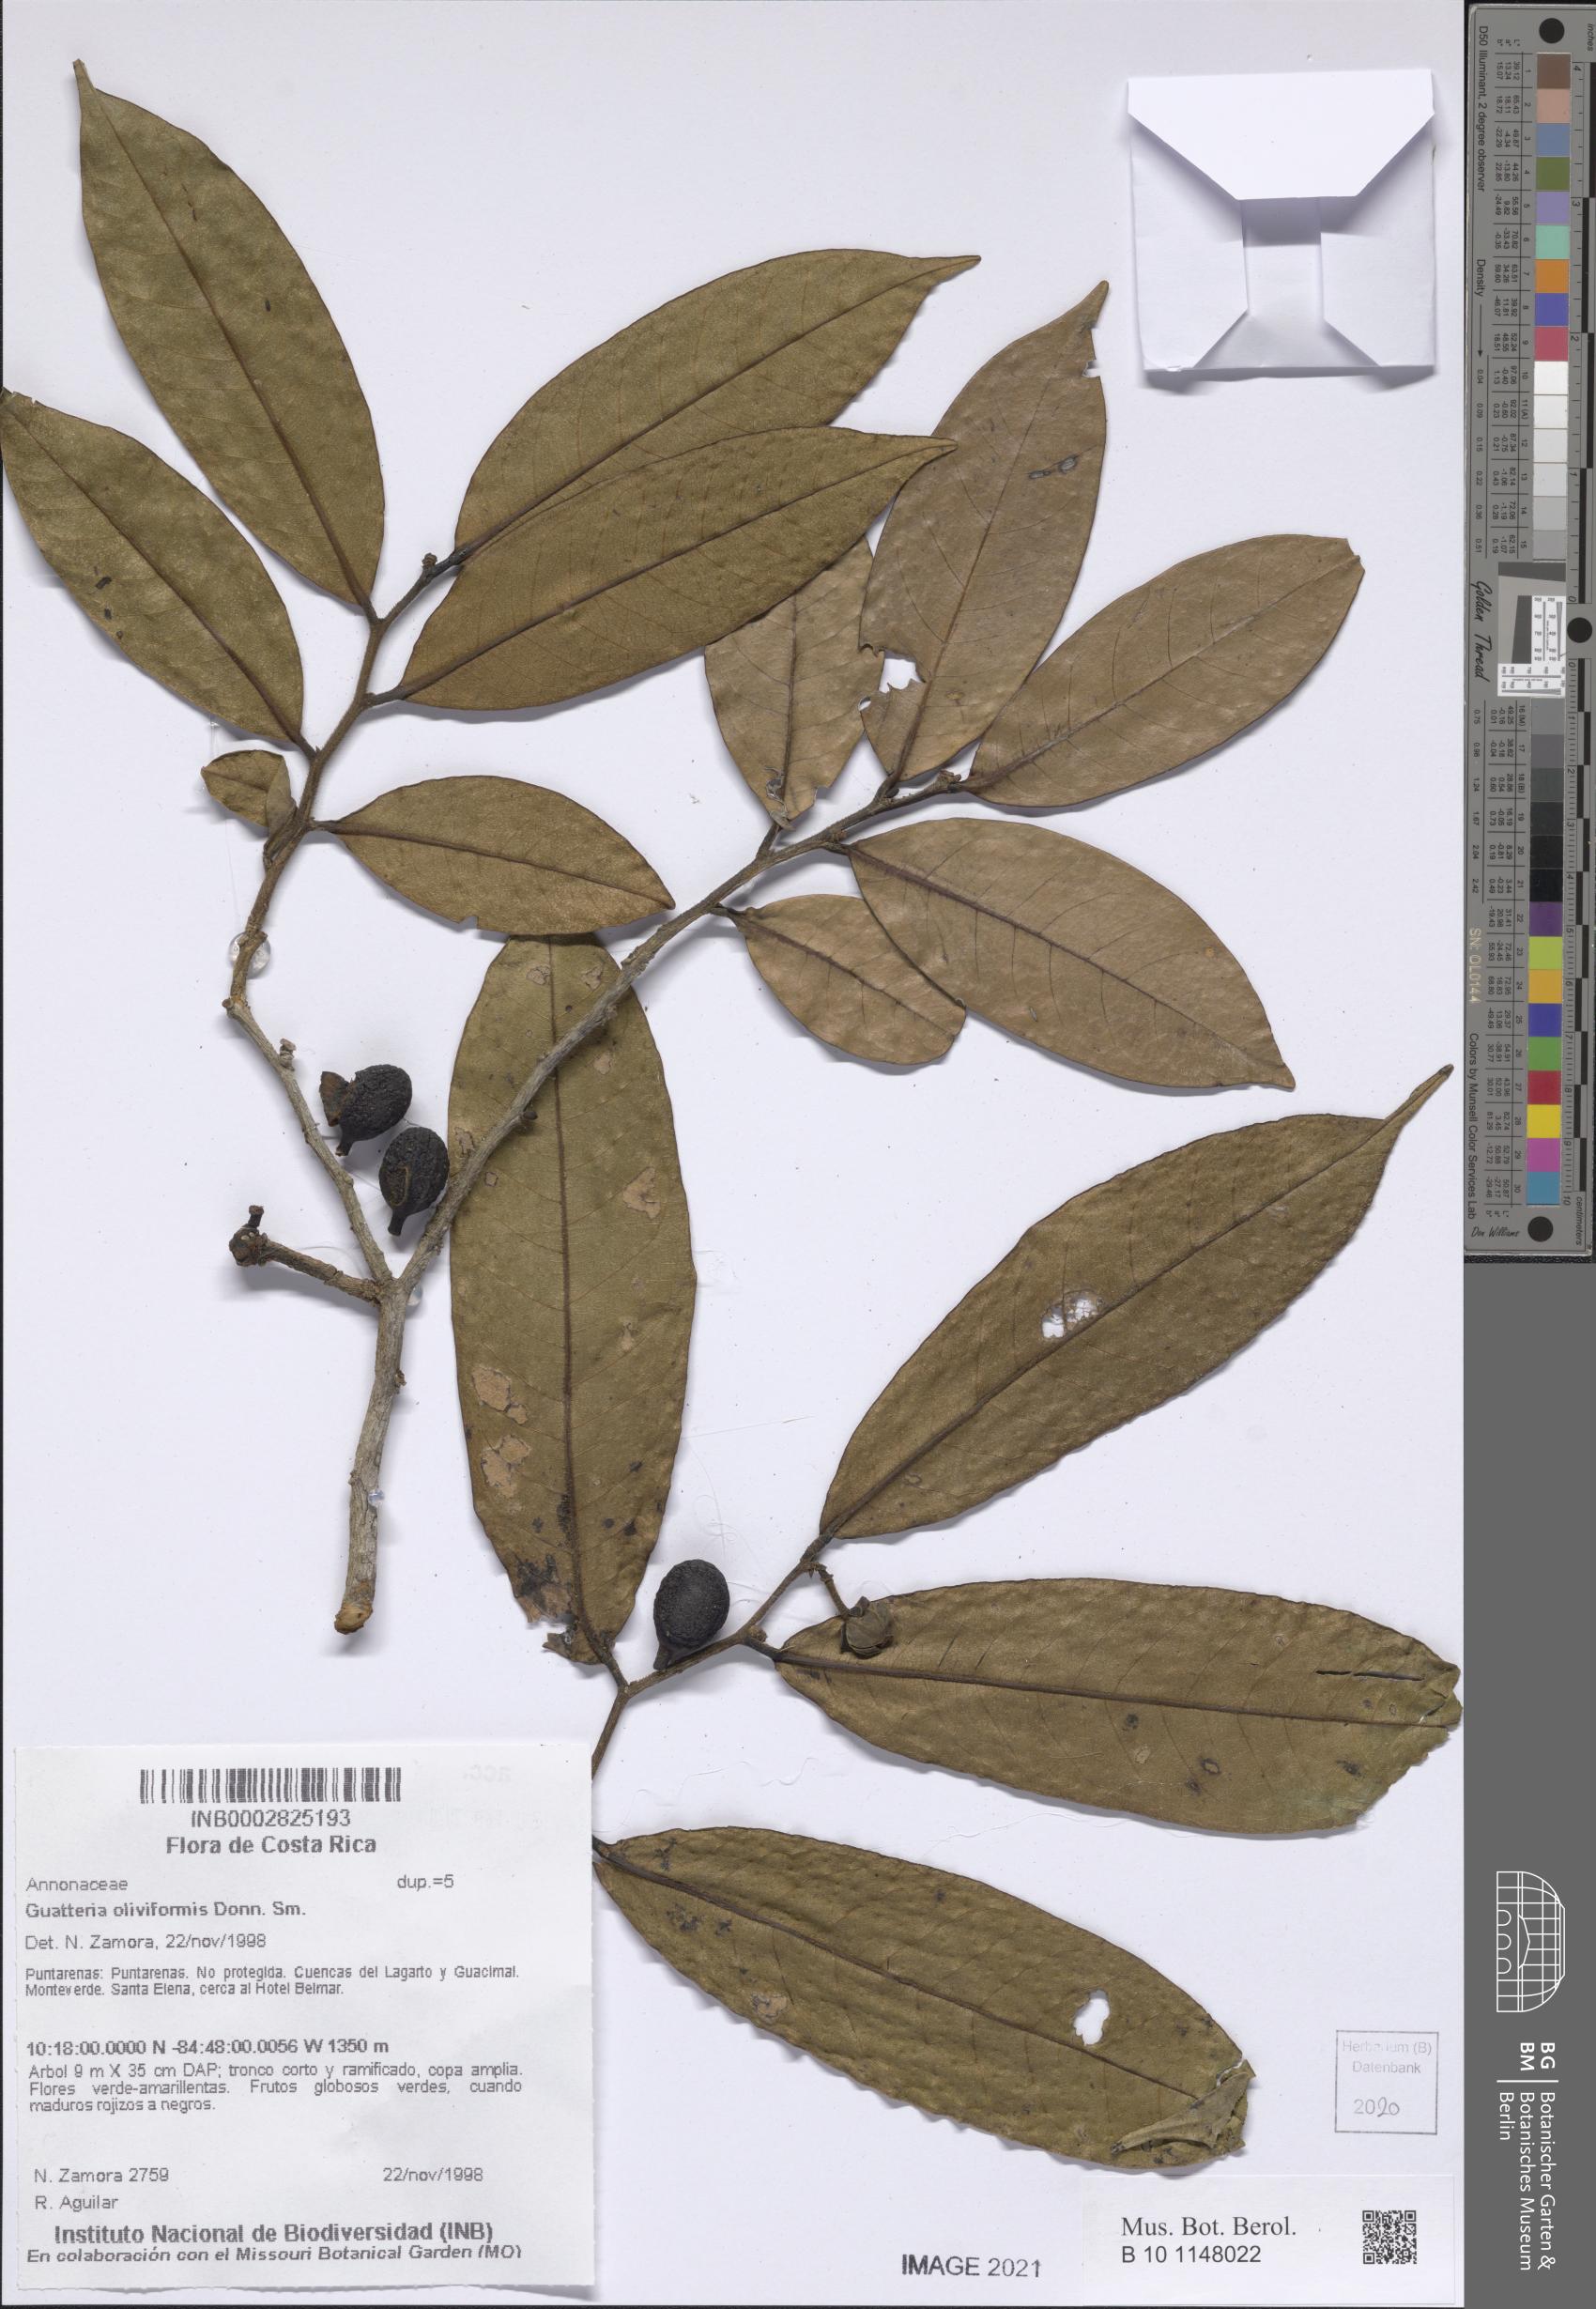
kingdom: Plantae
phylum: Tracheophyta
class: Magnoliopsida
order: Magnoliales
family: Annonaceae
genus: Guatteria
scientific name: Guatteria oliviformis
